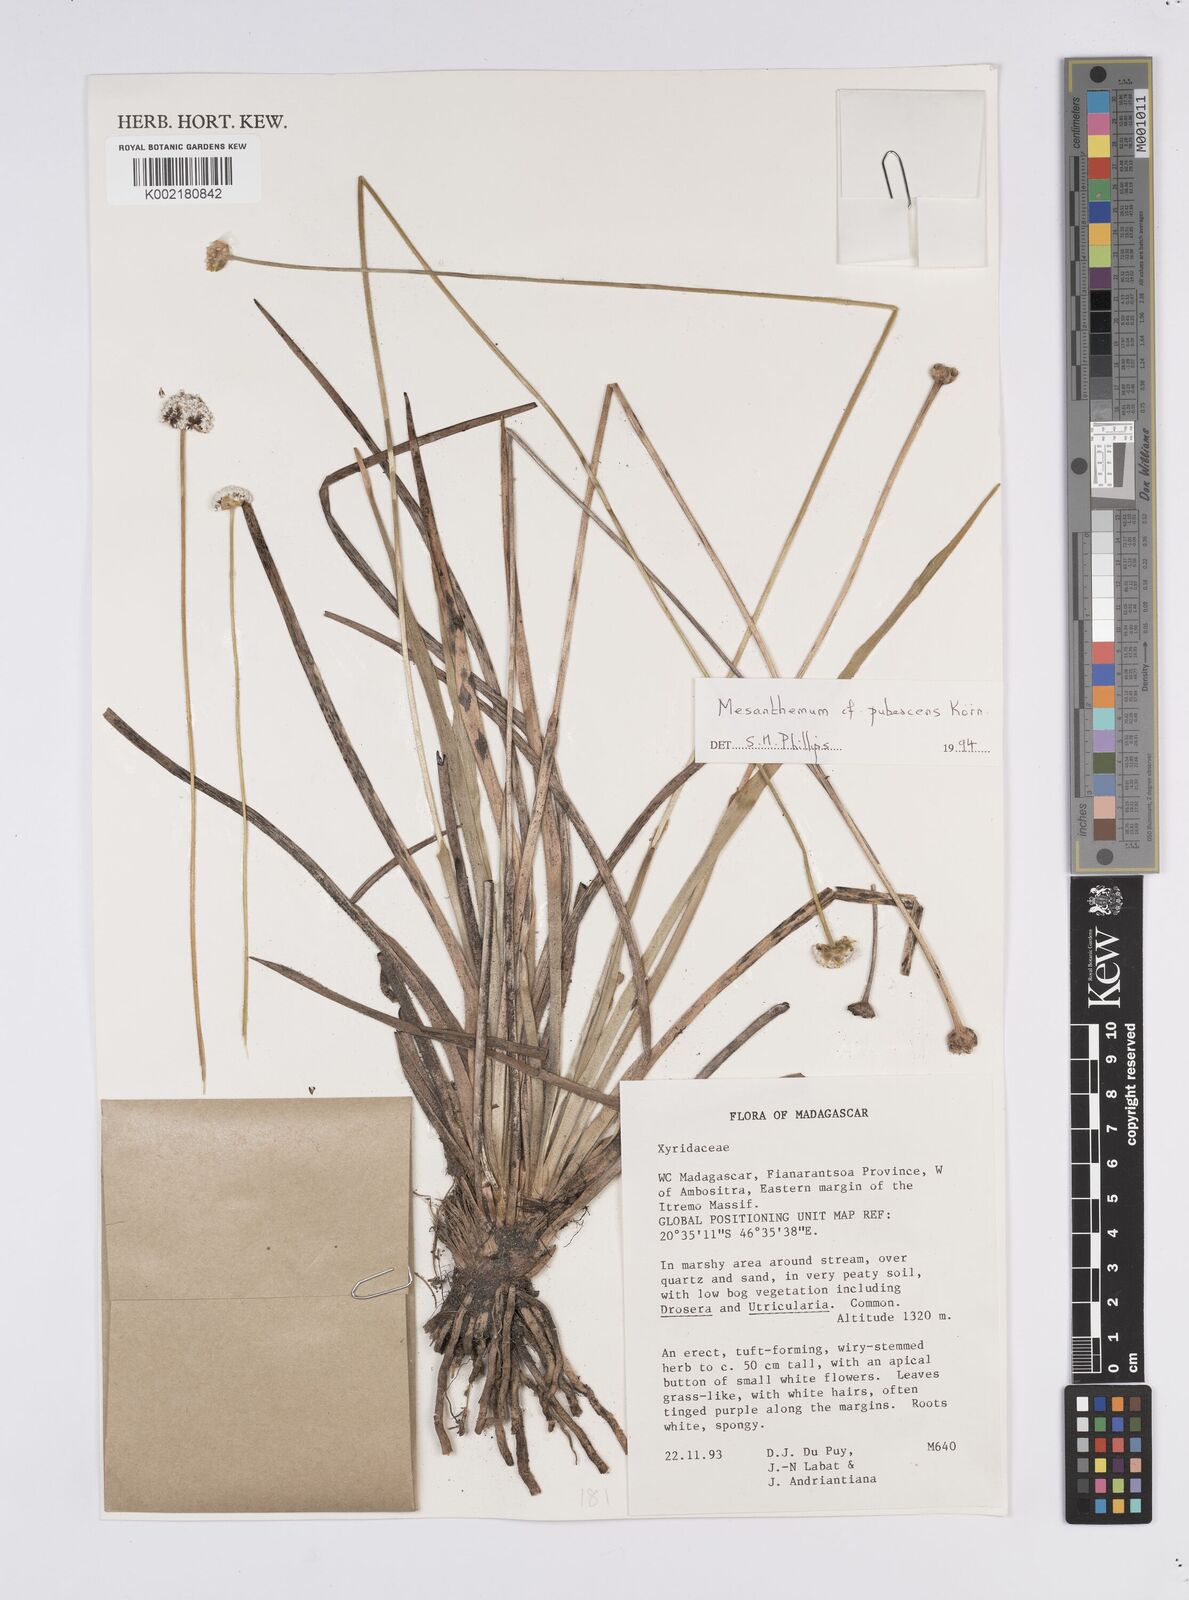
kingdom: Plantae
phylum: Tracheophyta
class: Liliopsida
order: Poales
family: Eriocaulaceae
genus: Mesanthemum
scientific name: Mesanthemum pubescens
